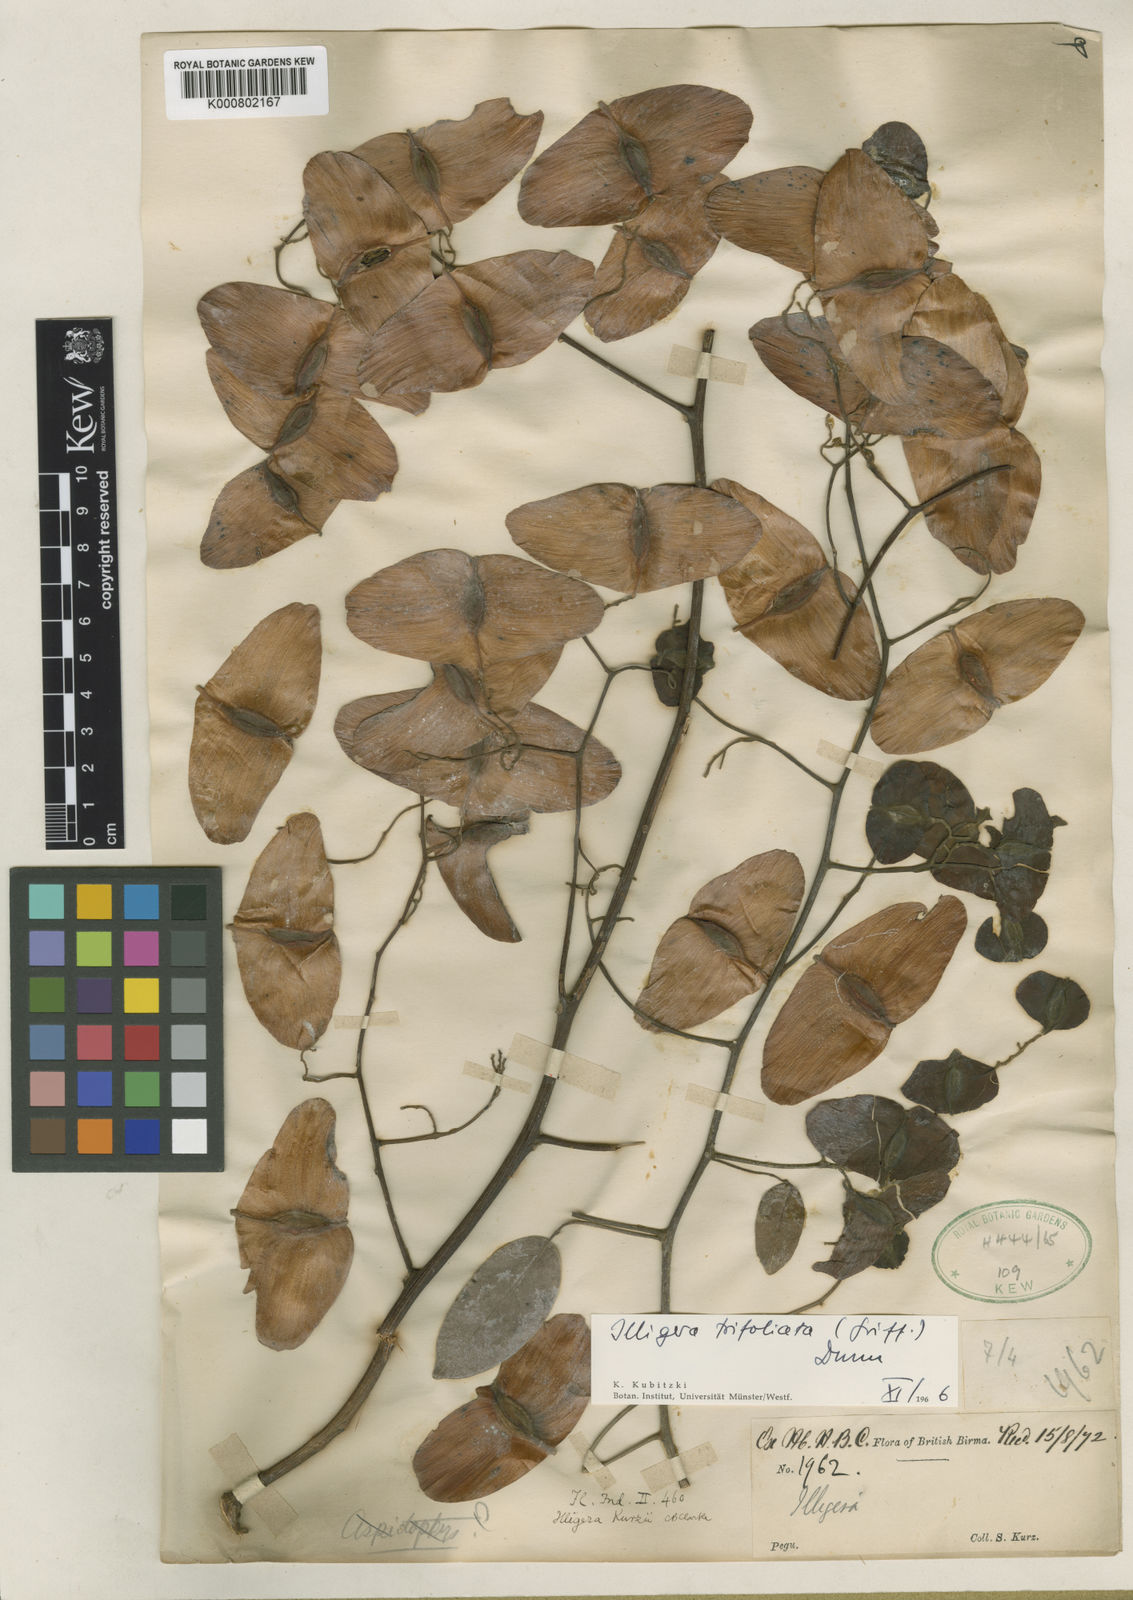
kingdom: Plantae
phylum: Tracheophyta
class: Magnoliopsida
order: Laurales
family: Hernandiaceae
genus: Illigera
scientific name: Illigera trifoliata
